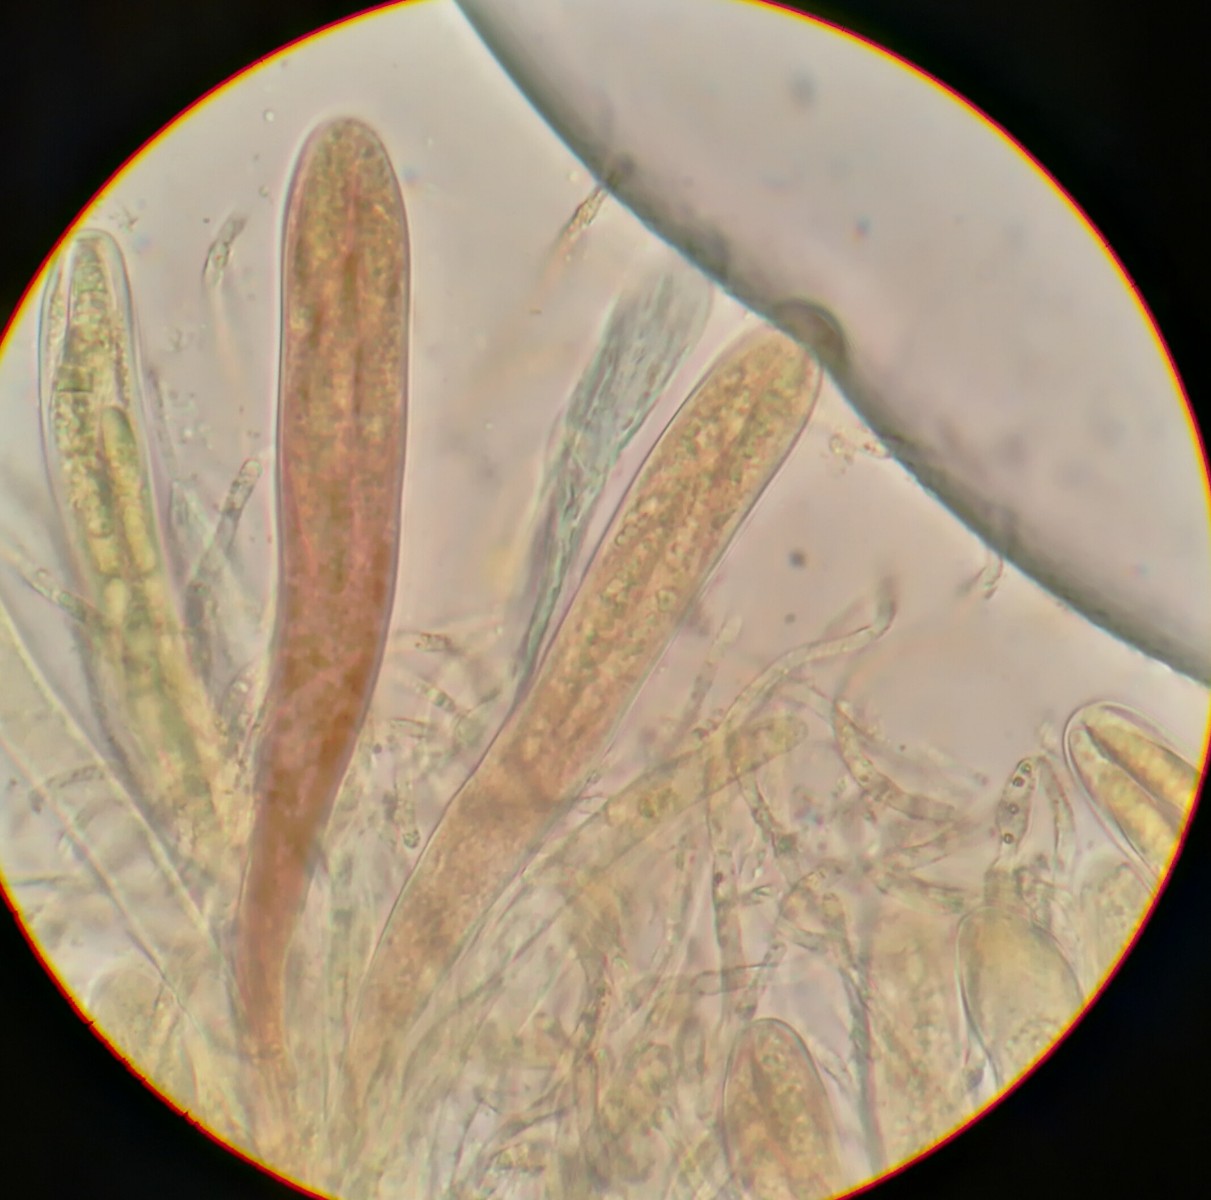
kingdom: Fungi
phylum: Ascomycota
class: Leotiomycetes
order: Helotiales
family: Helotiaceae
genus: Durella
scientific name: Durella connivens
